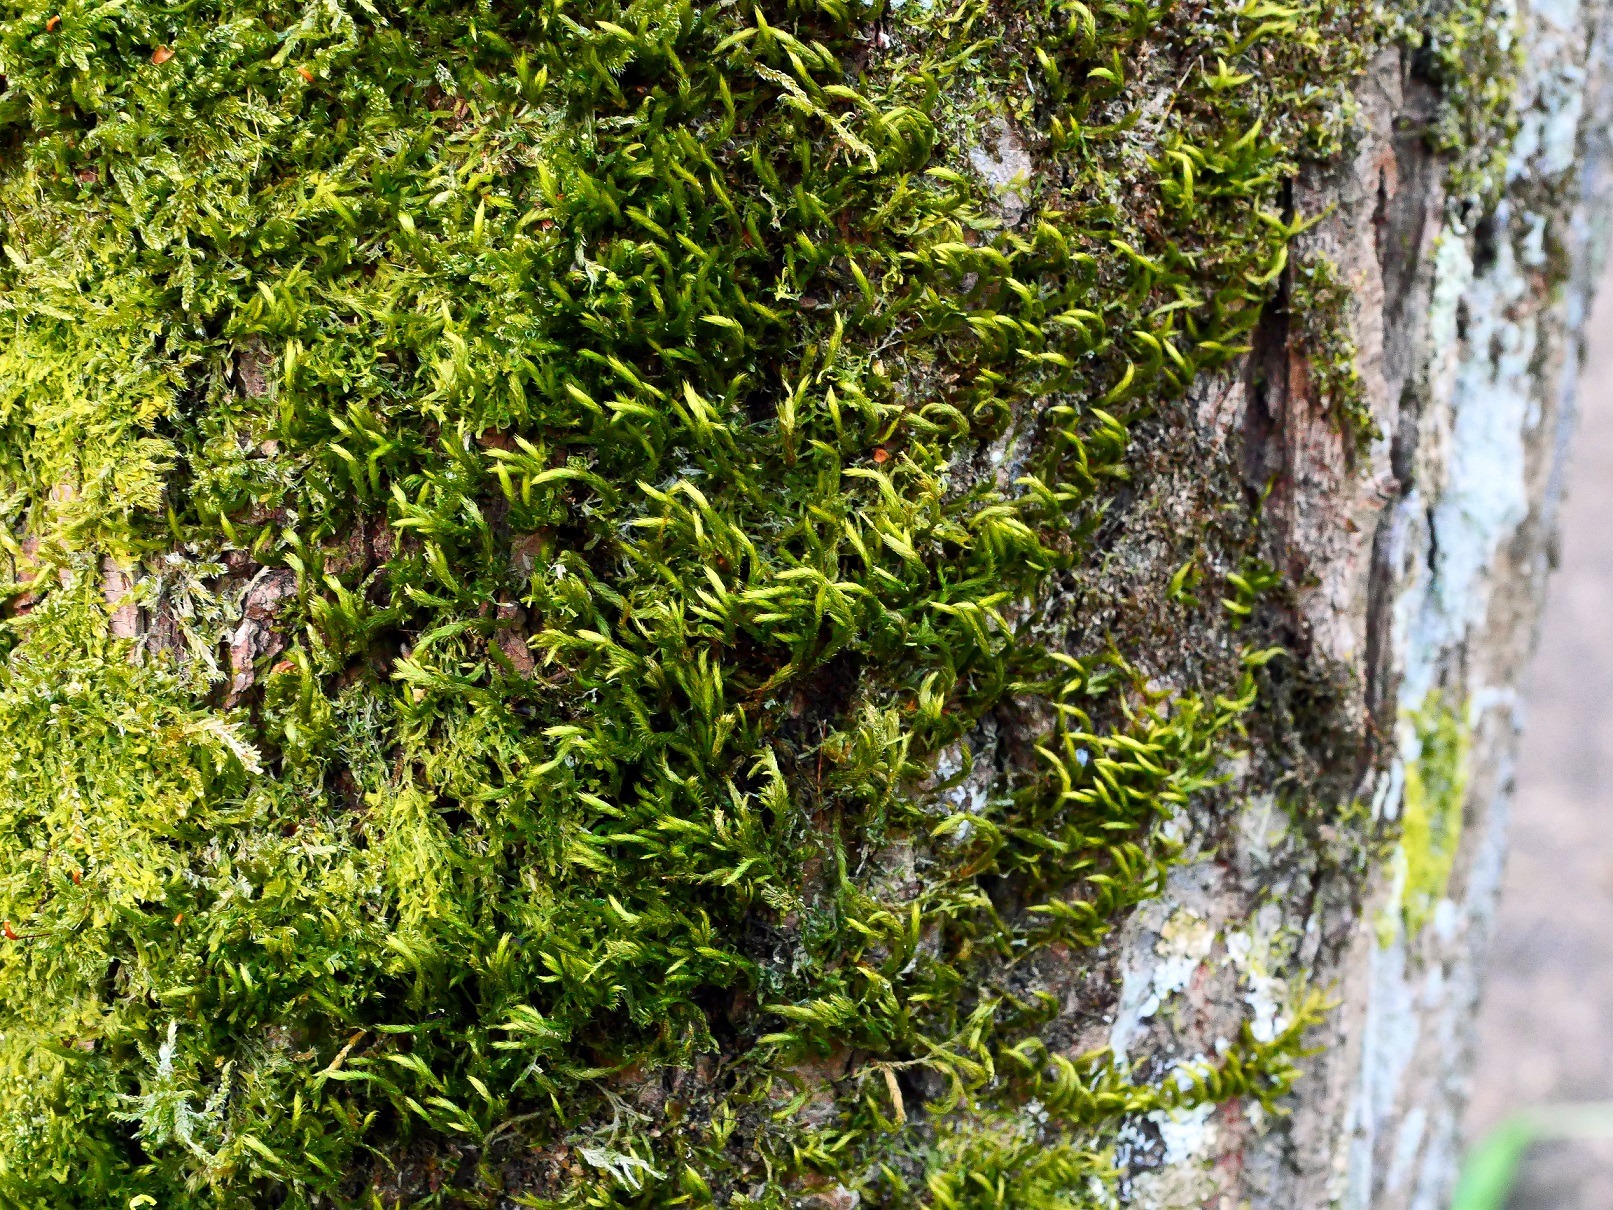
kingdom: Plantae
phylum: Bryophyta
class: Bryopsida
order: Hypnales
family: Leucodontaceae
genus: Leucodon
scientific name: Leucodon sciuroides
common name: Egernhale-buemos
